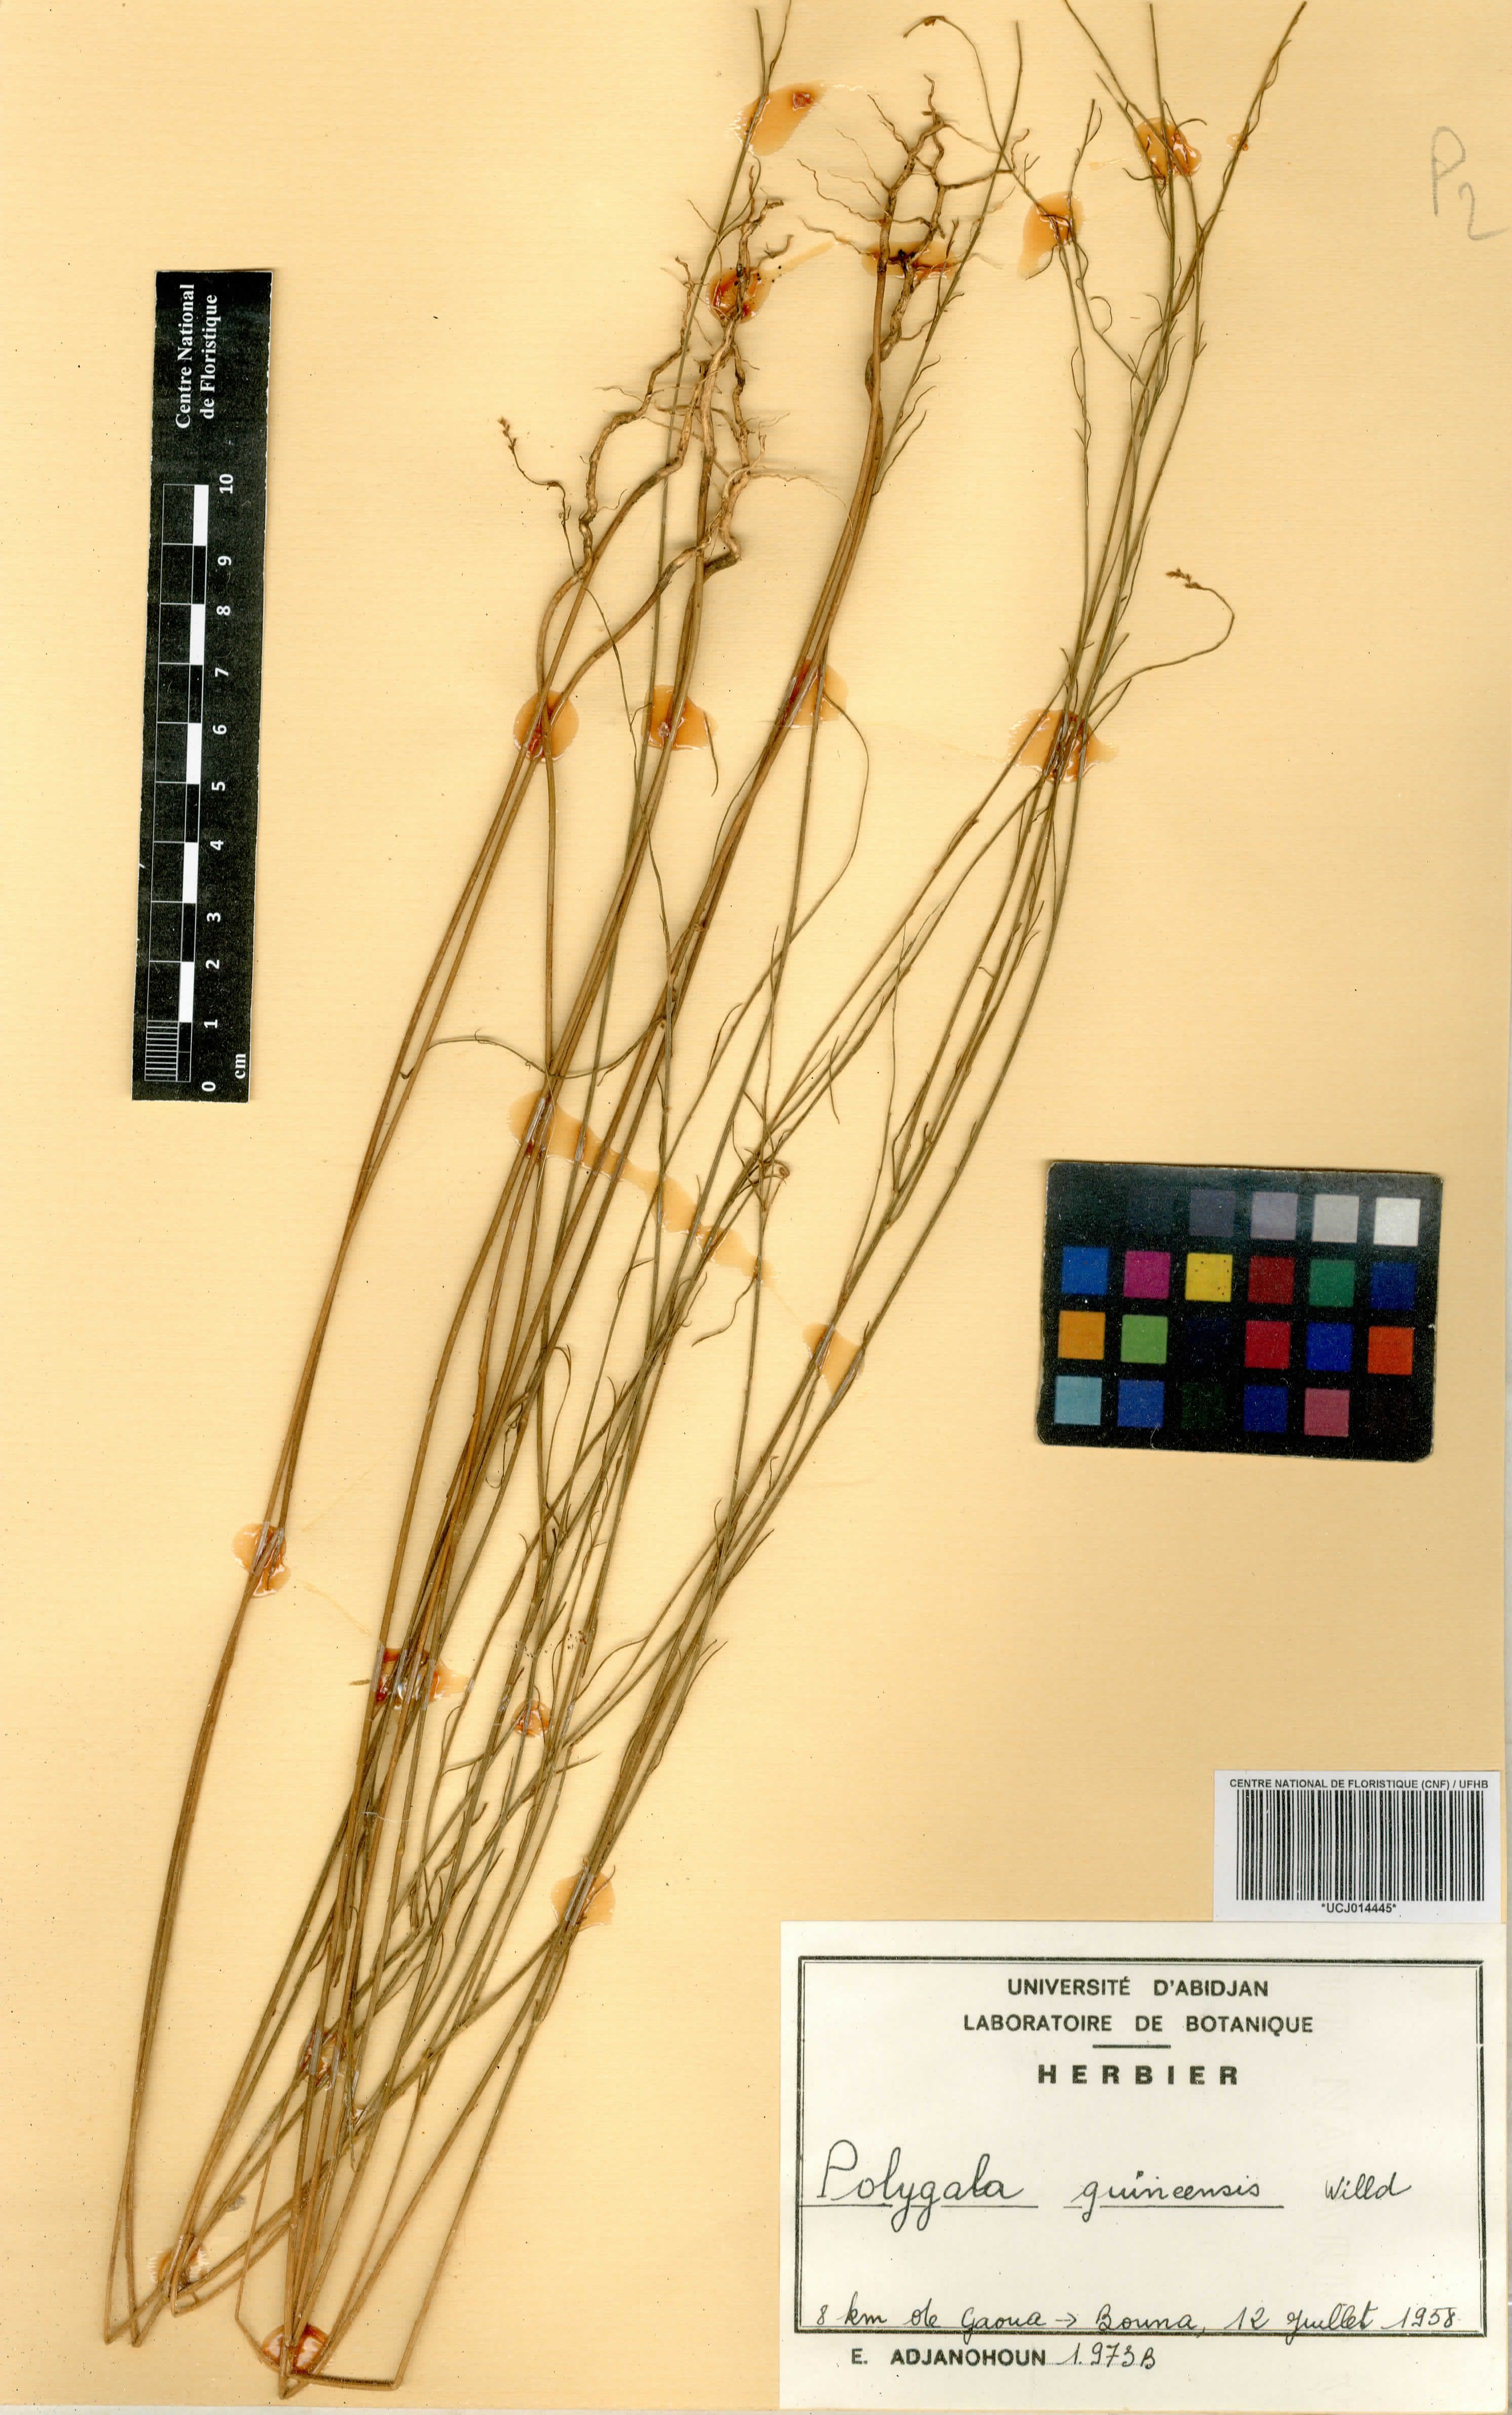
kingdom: Plantae
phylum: Tracheophyta
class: Magnoliopsida
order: Fabales
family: Polygalaceae
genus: Polygala
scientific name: Polygala guineensis
